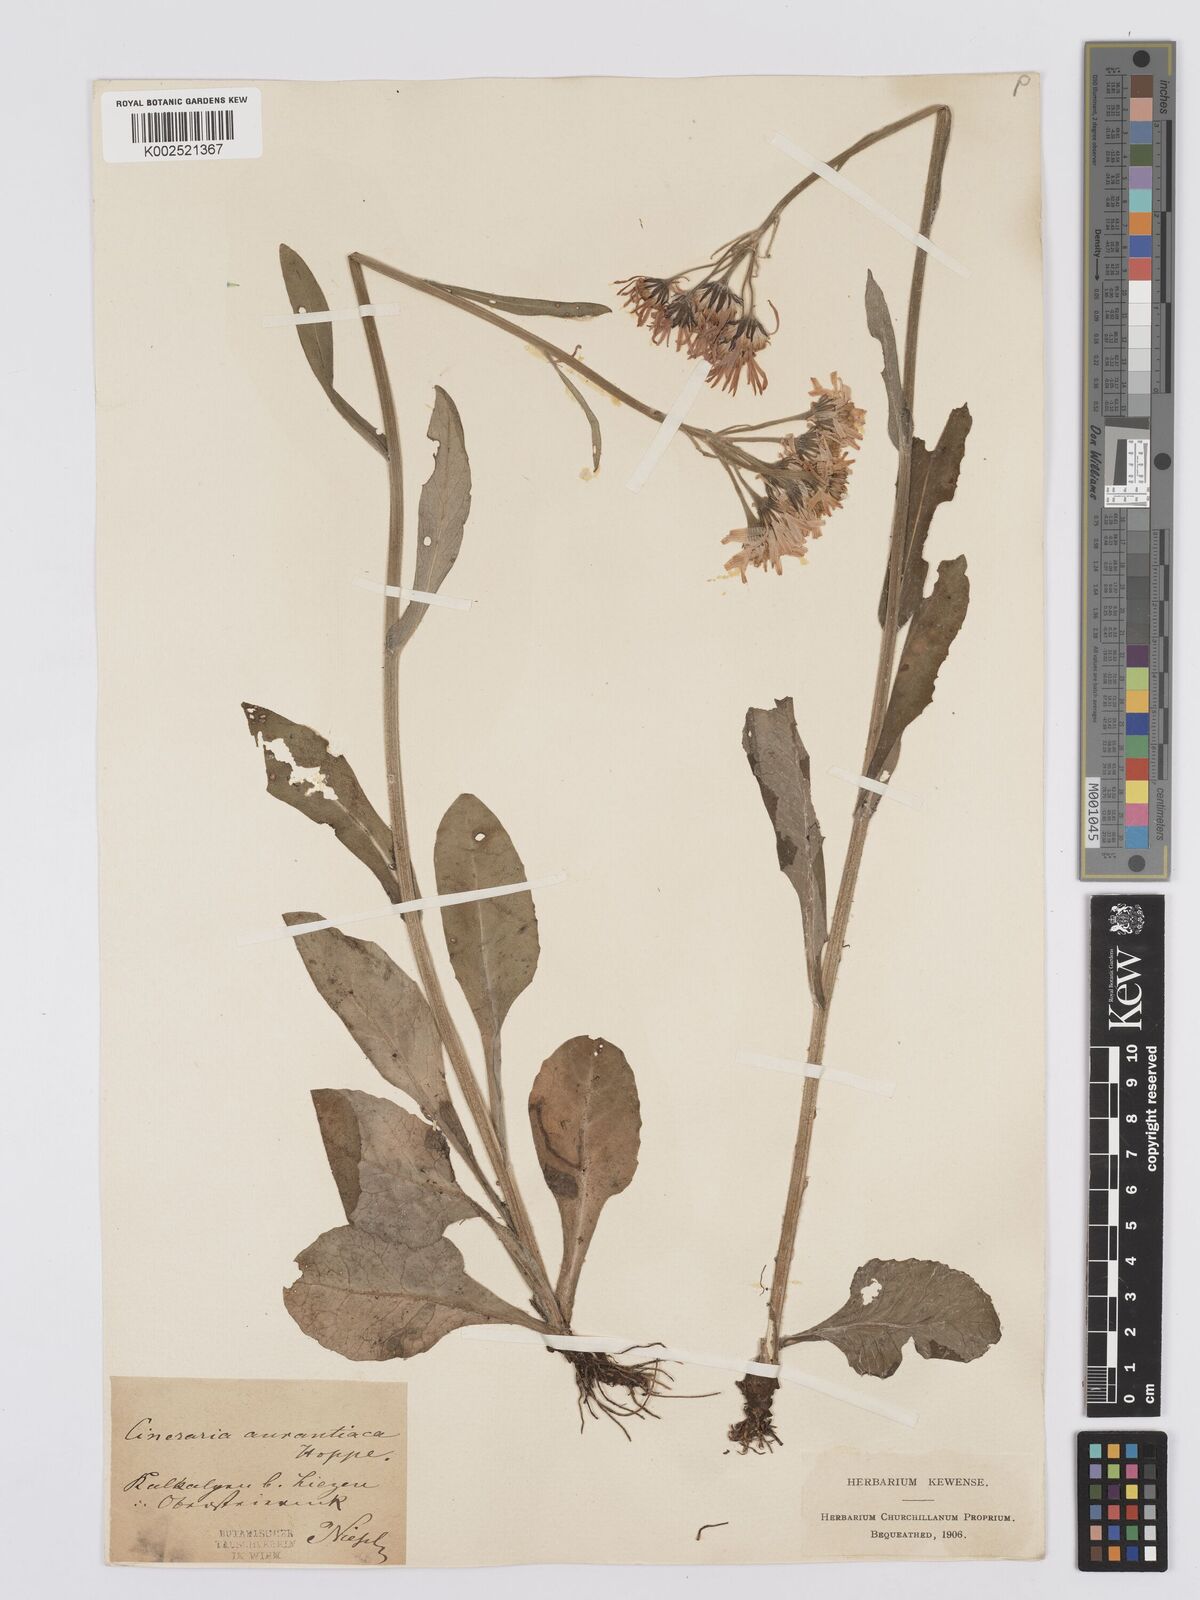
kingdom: Plantae
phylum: Tracheophyta
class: Magnoliopsida
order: Asterales
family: Asteraceae
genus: Tephroseris
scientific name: Tephroseris aurantiaca
